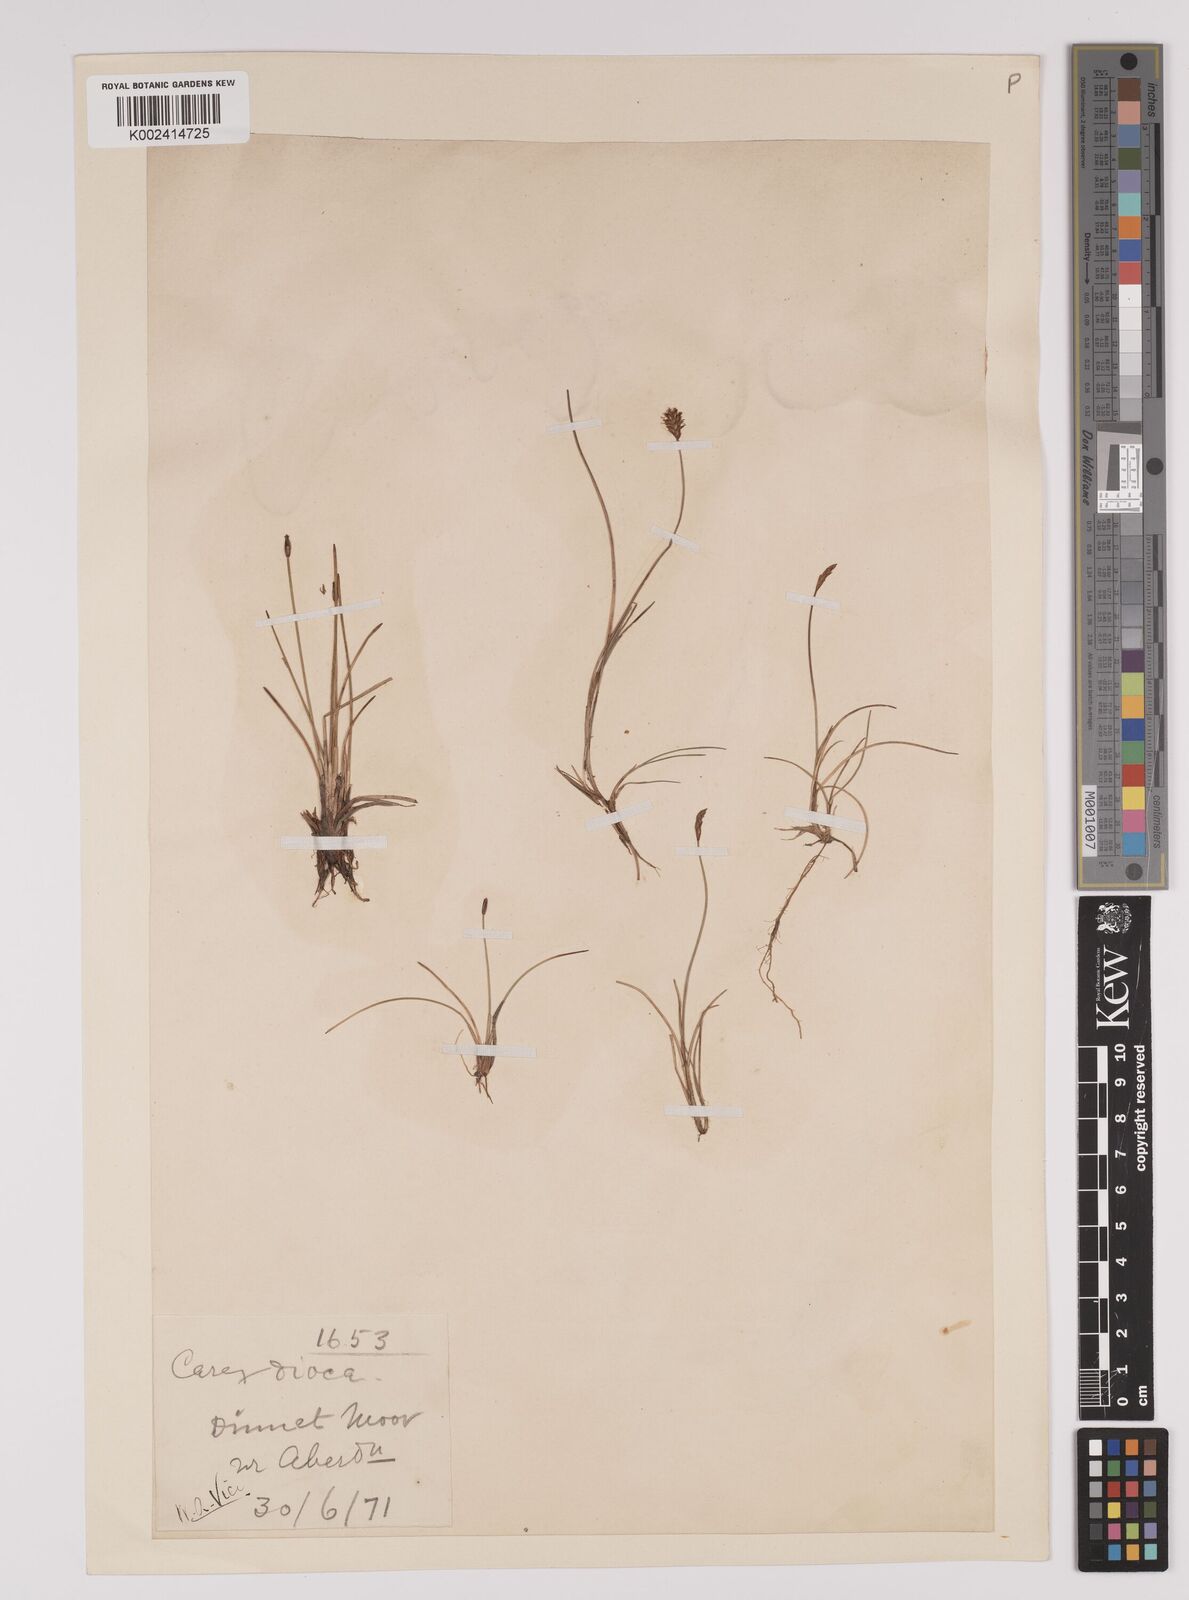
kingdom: Plantae
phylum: Tracheophyta
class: Liliopsida
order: Poales
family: Cyperaceae
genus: Carex
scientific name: Carex dioica
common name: Dioecious sedge
